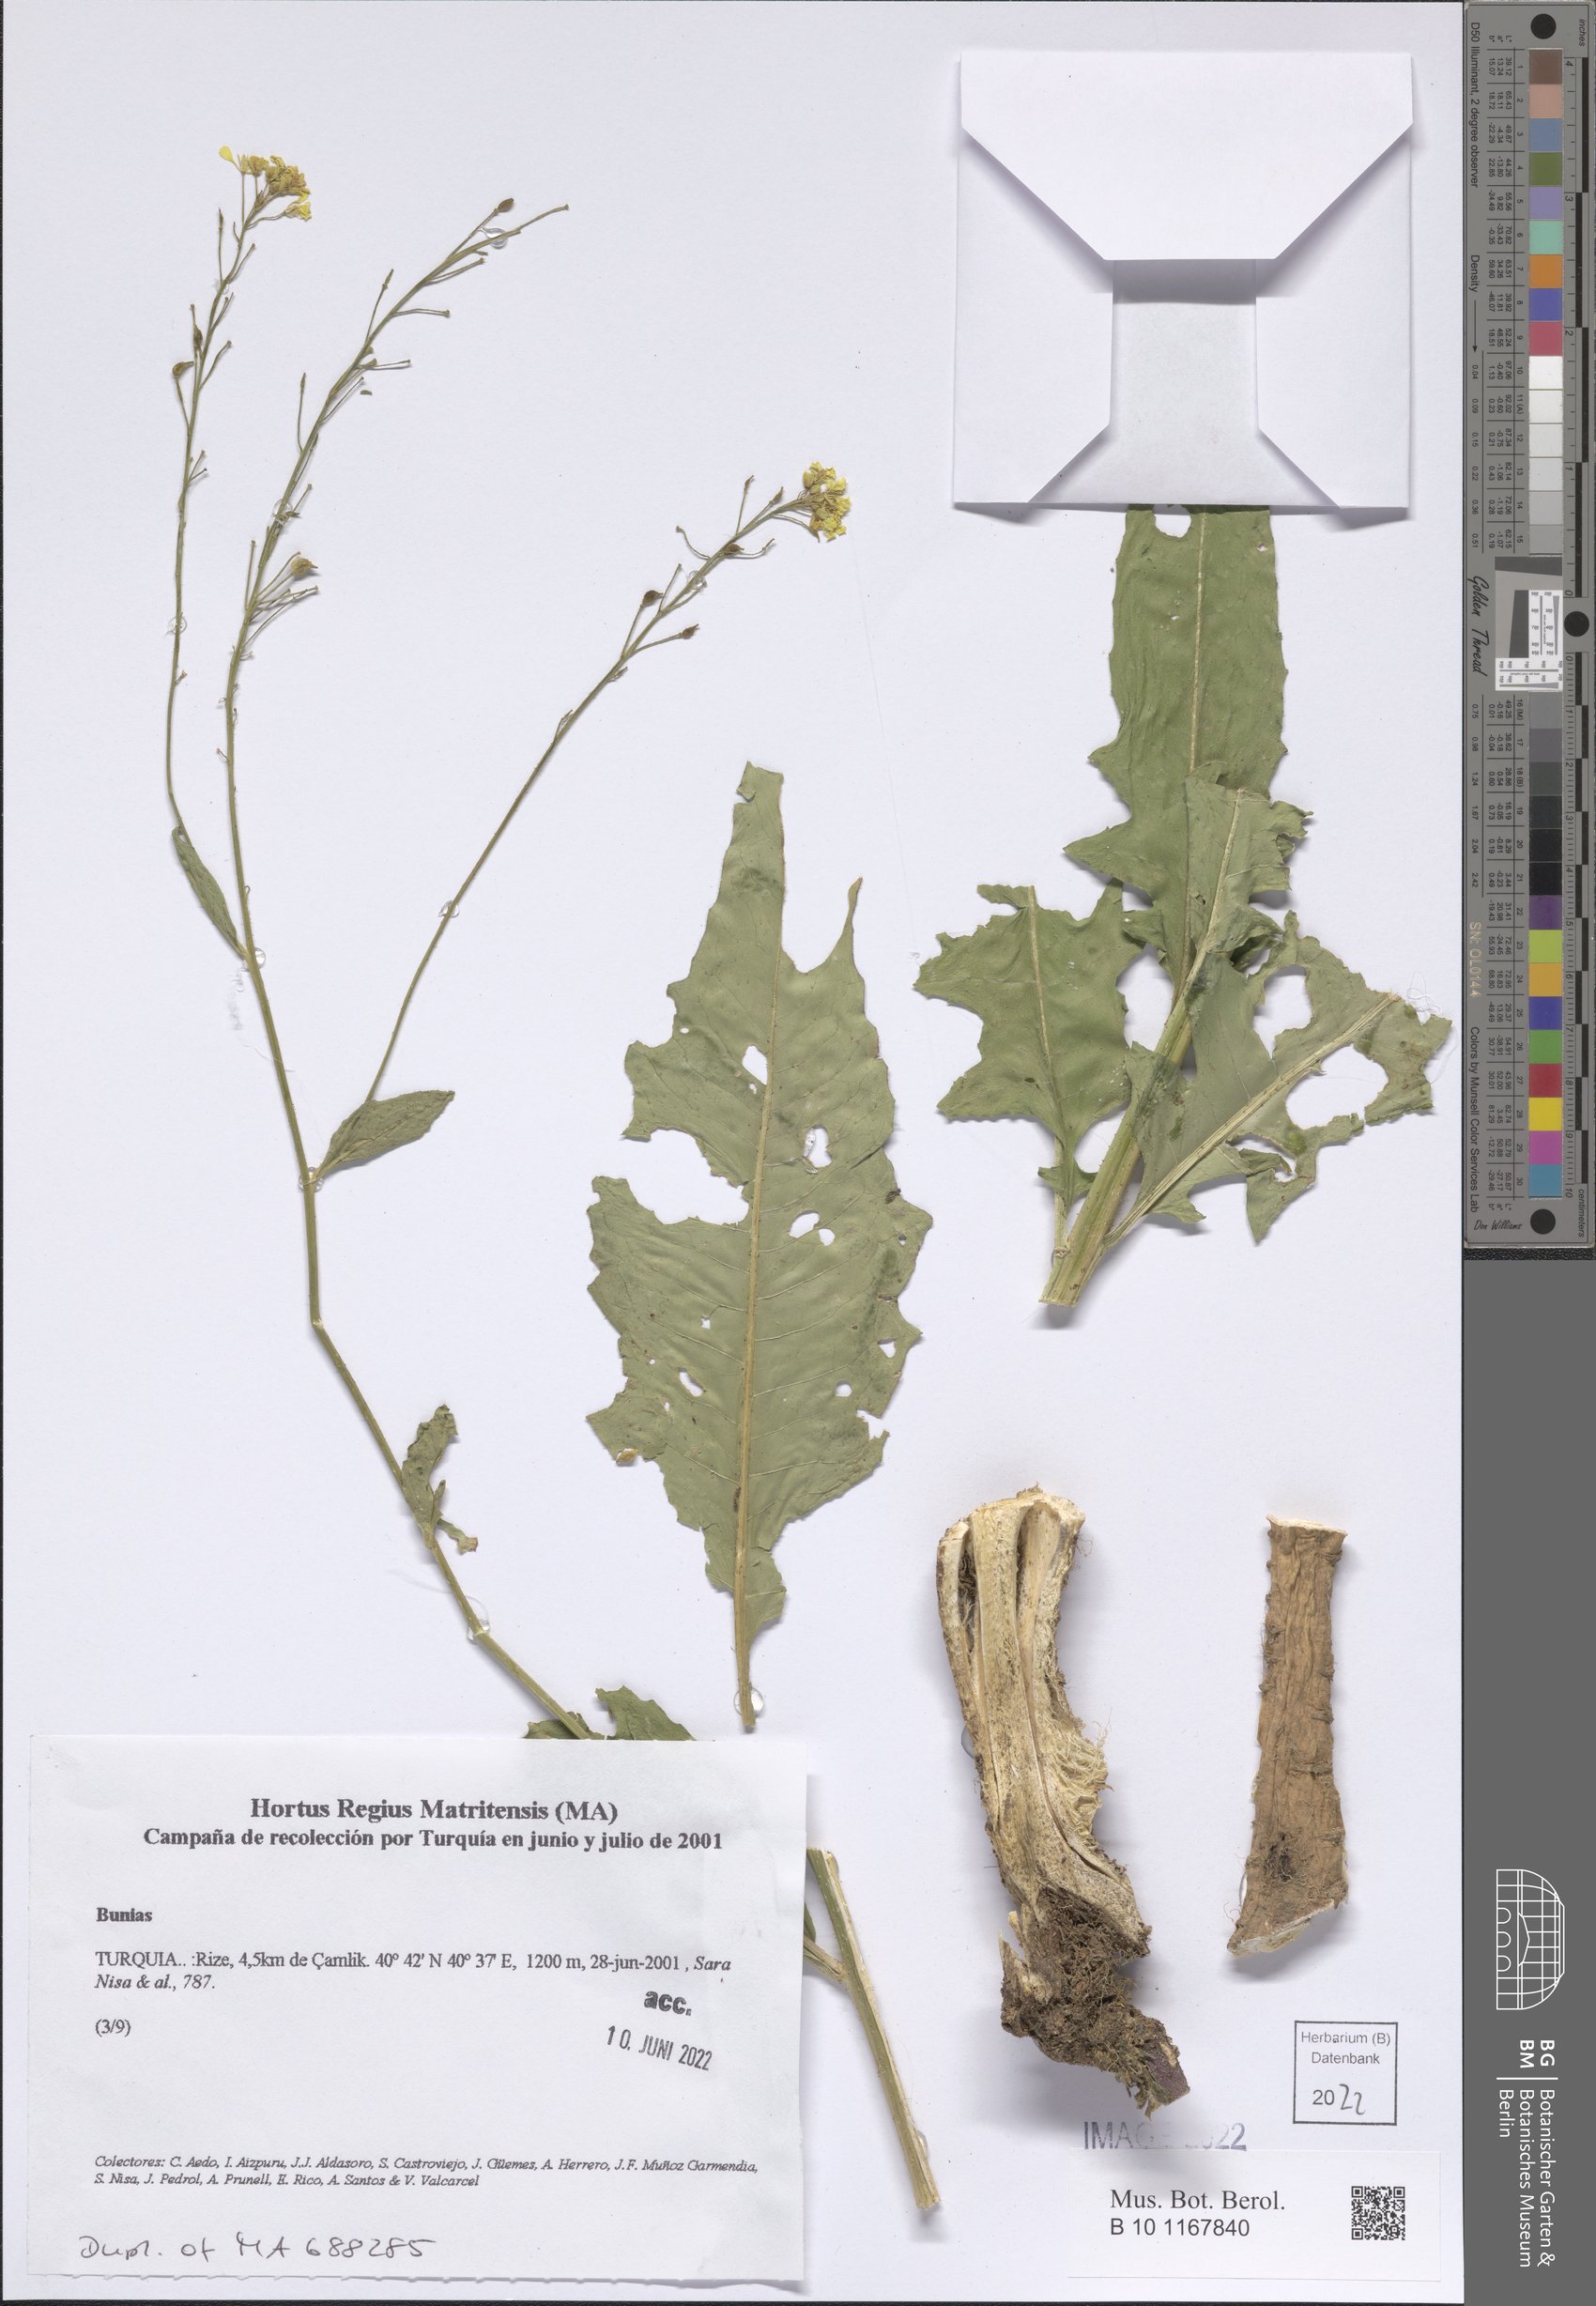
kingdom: Plantae
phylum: Tracheophyta
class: Magnoliopsida
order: Brassicales
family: Brassicaceae
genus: Bunias
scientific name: Bunias
